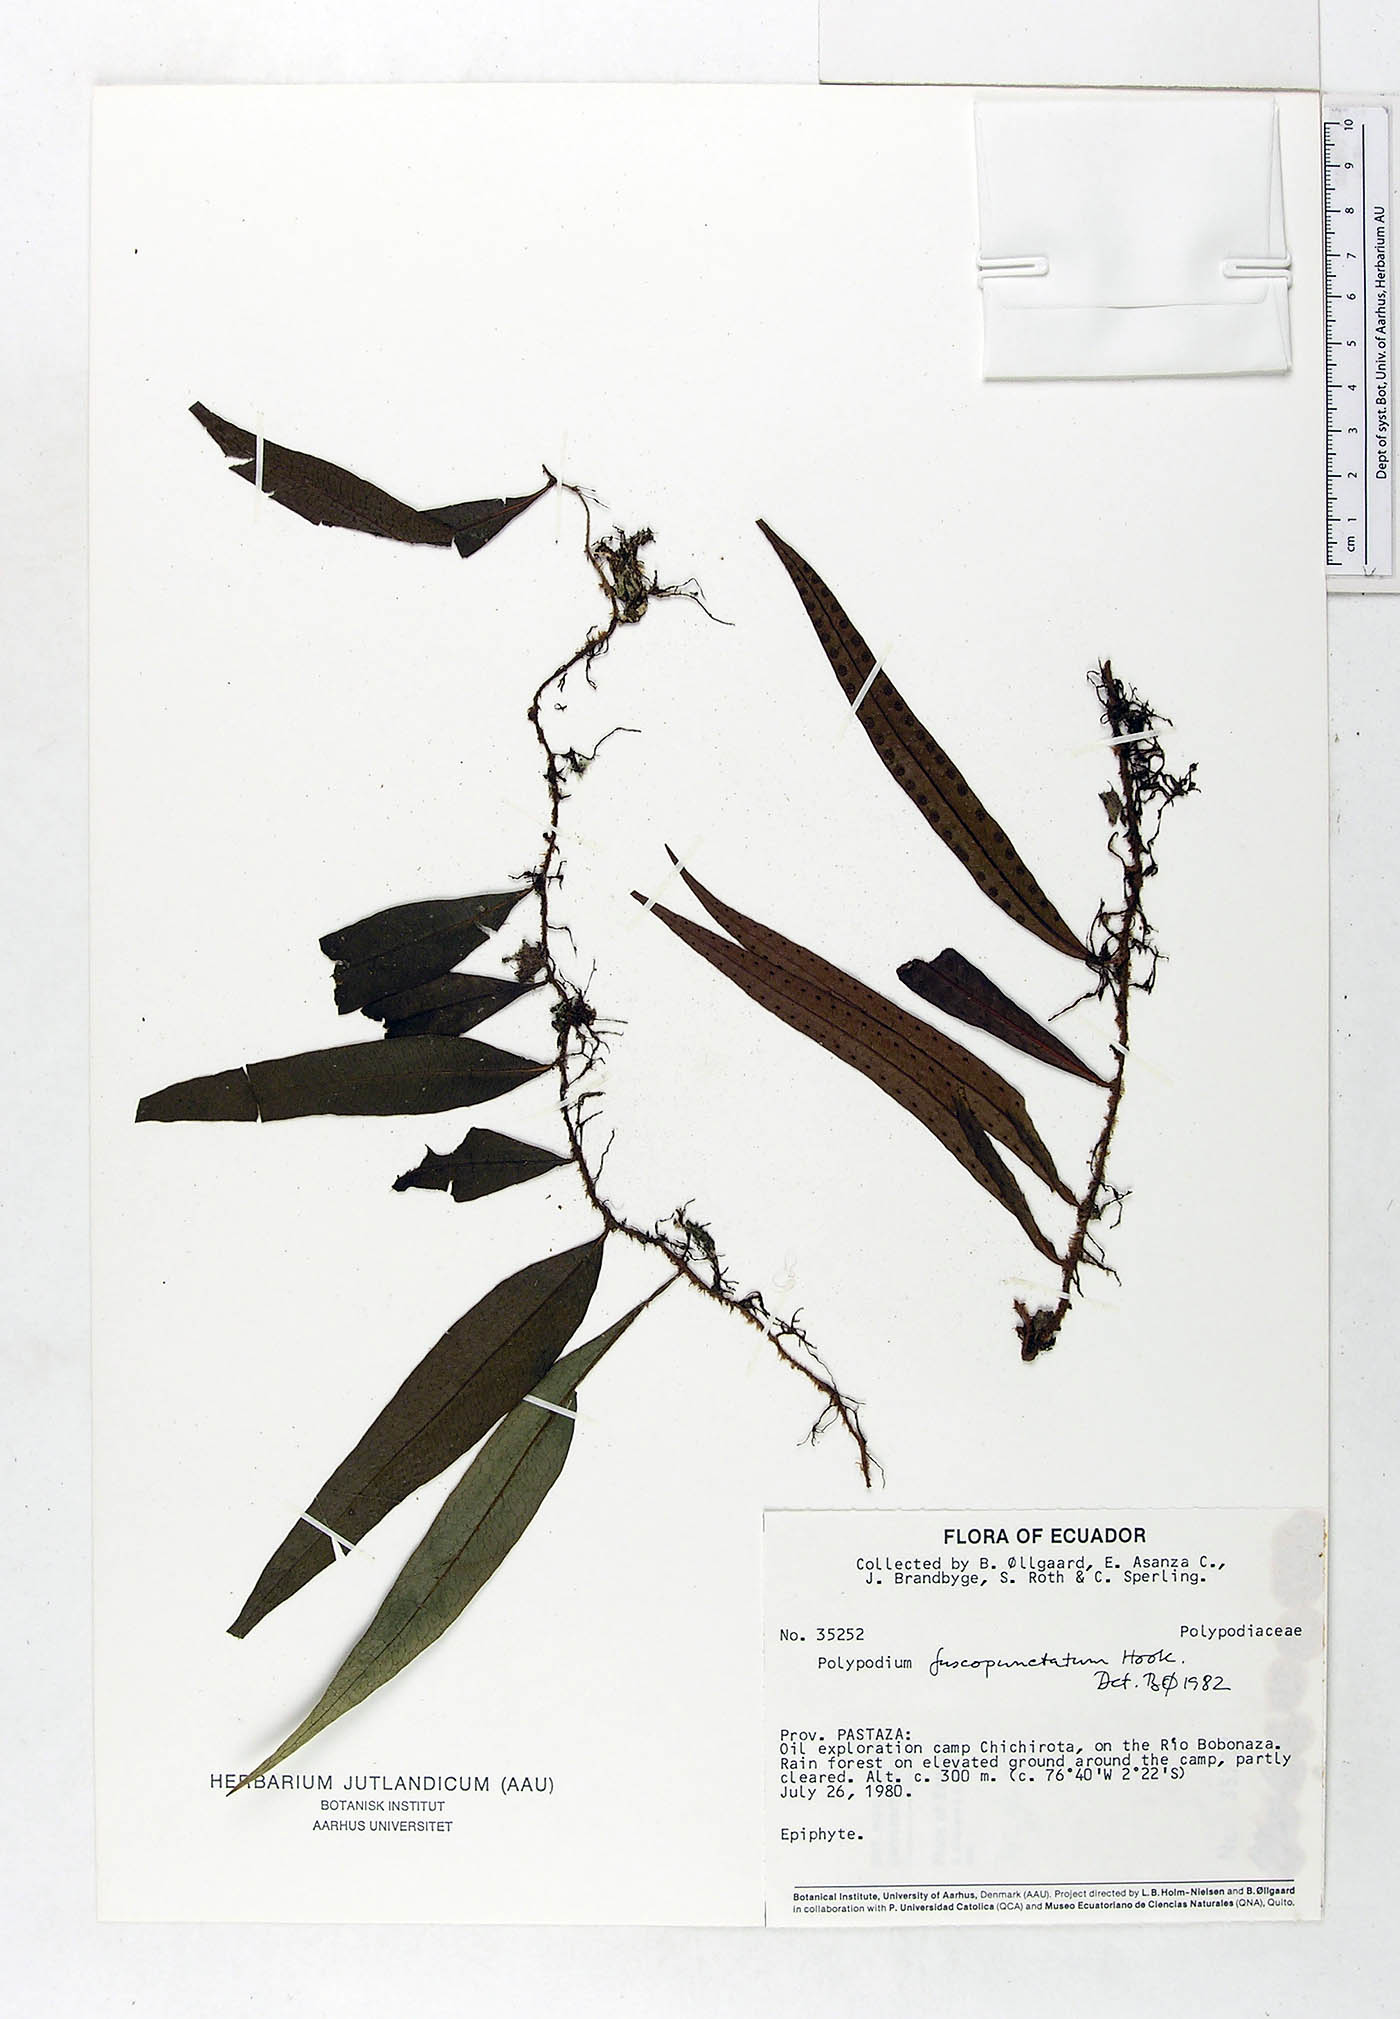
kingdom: Plantae
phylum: Tracheophyta
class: Polypodiopsida
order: Polypodiales
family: Polypodiaceae
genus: Microgramma
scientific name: Microgramma dictyophylla
